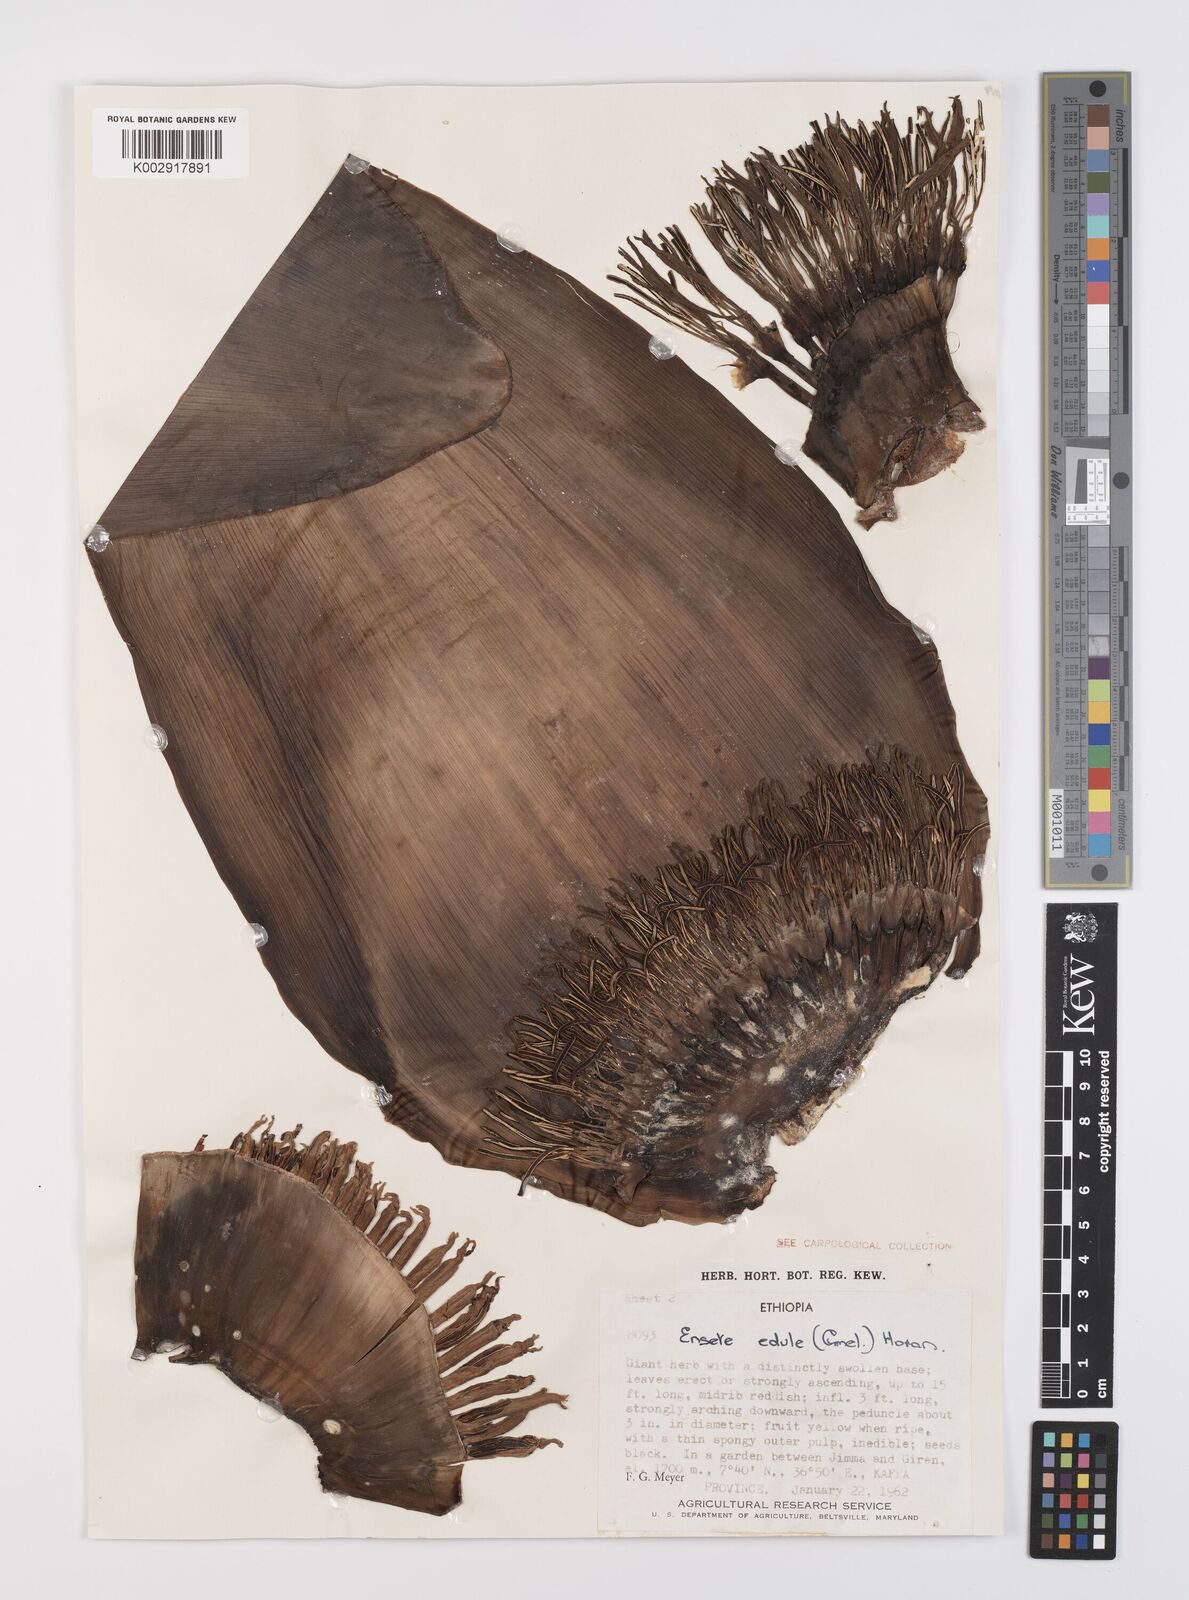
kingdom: Plantae
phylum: Tracheophyta
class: Liliopsida
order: Zingiberales
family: Musaceae
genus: Ensete
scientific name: Ensete ventricosum
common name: Abyssinian banana
